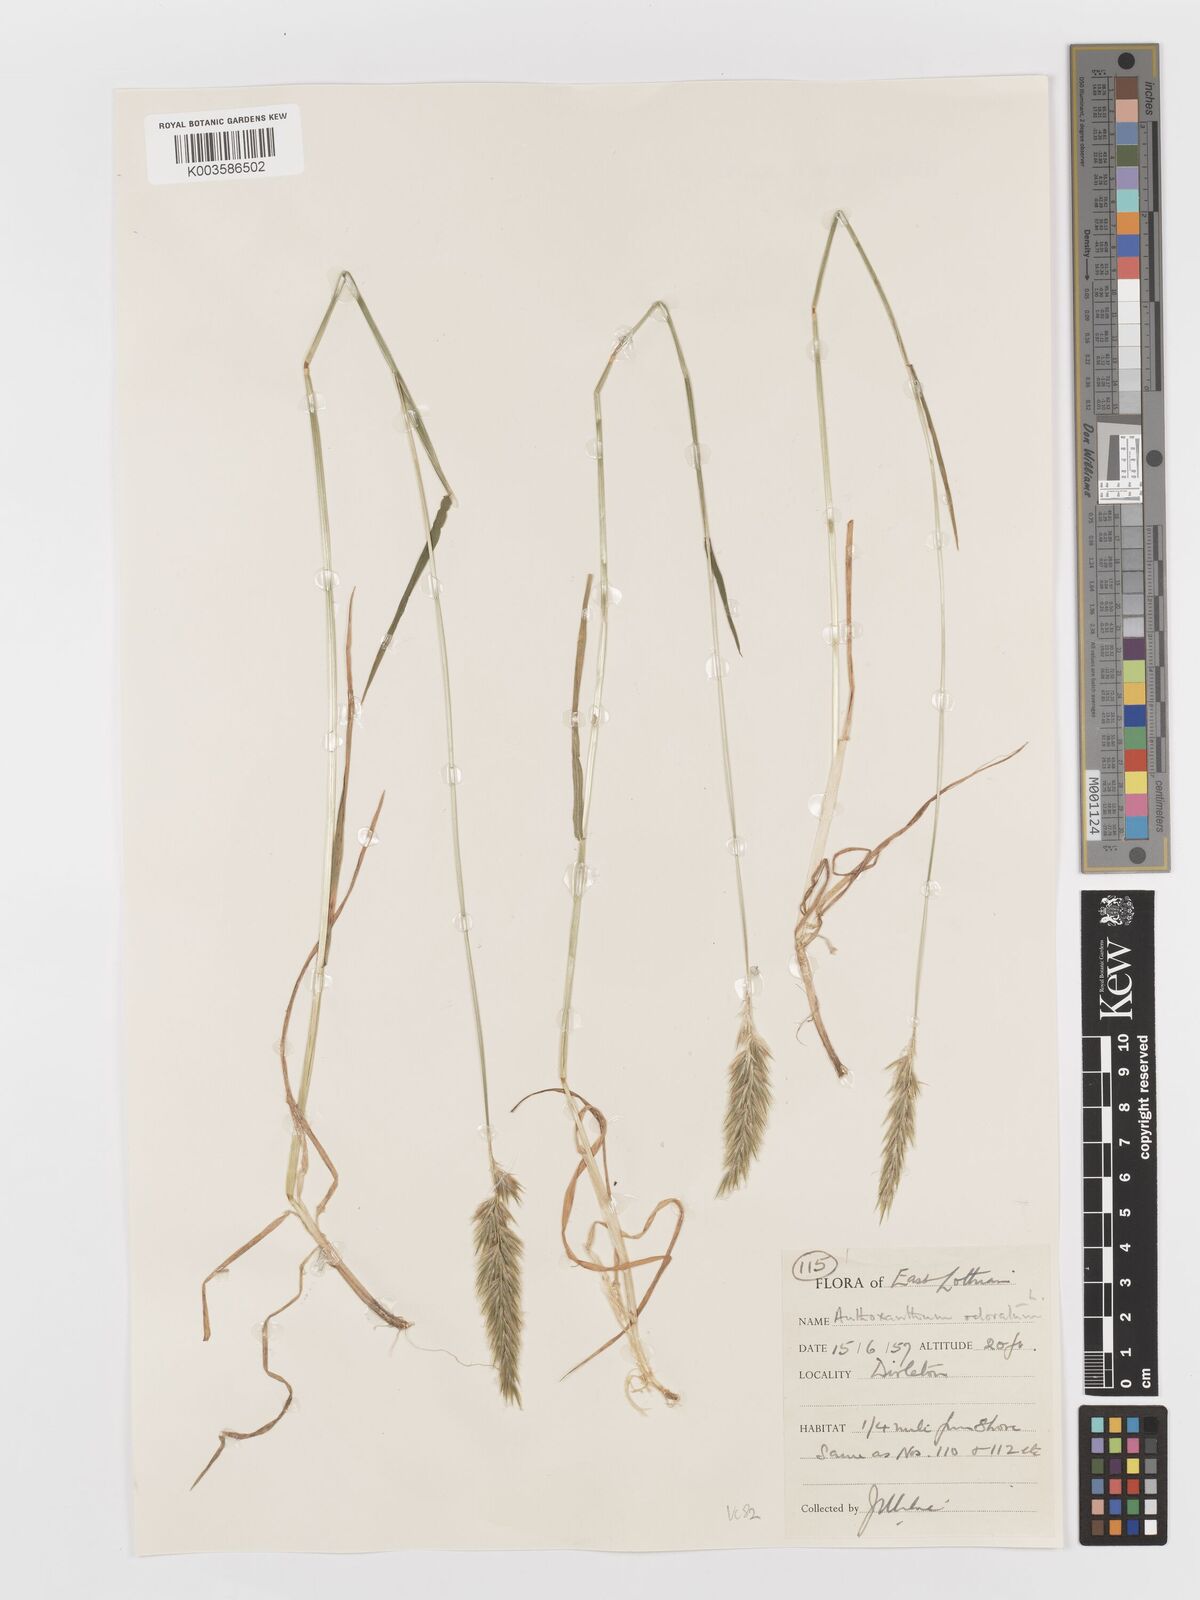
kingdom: Plantae
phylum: Tracheophyta
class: Liliopsida
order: Poales
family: Poaceae
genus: Anthoxanthum
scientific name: Anthoxanthum odoratum
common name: Sweet vernalgrass
